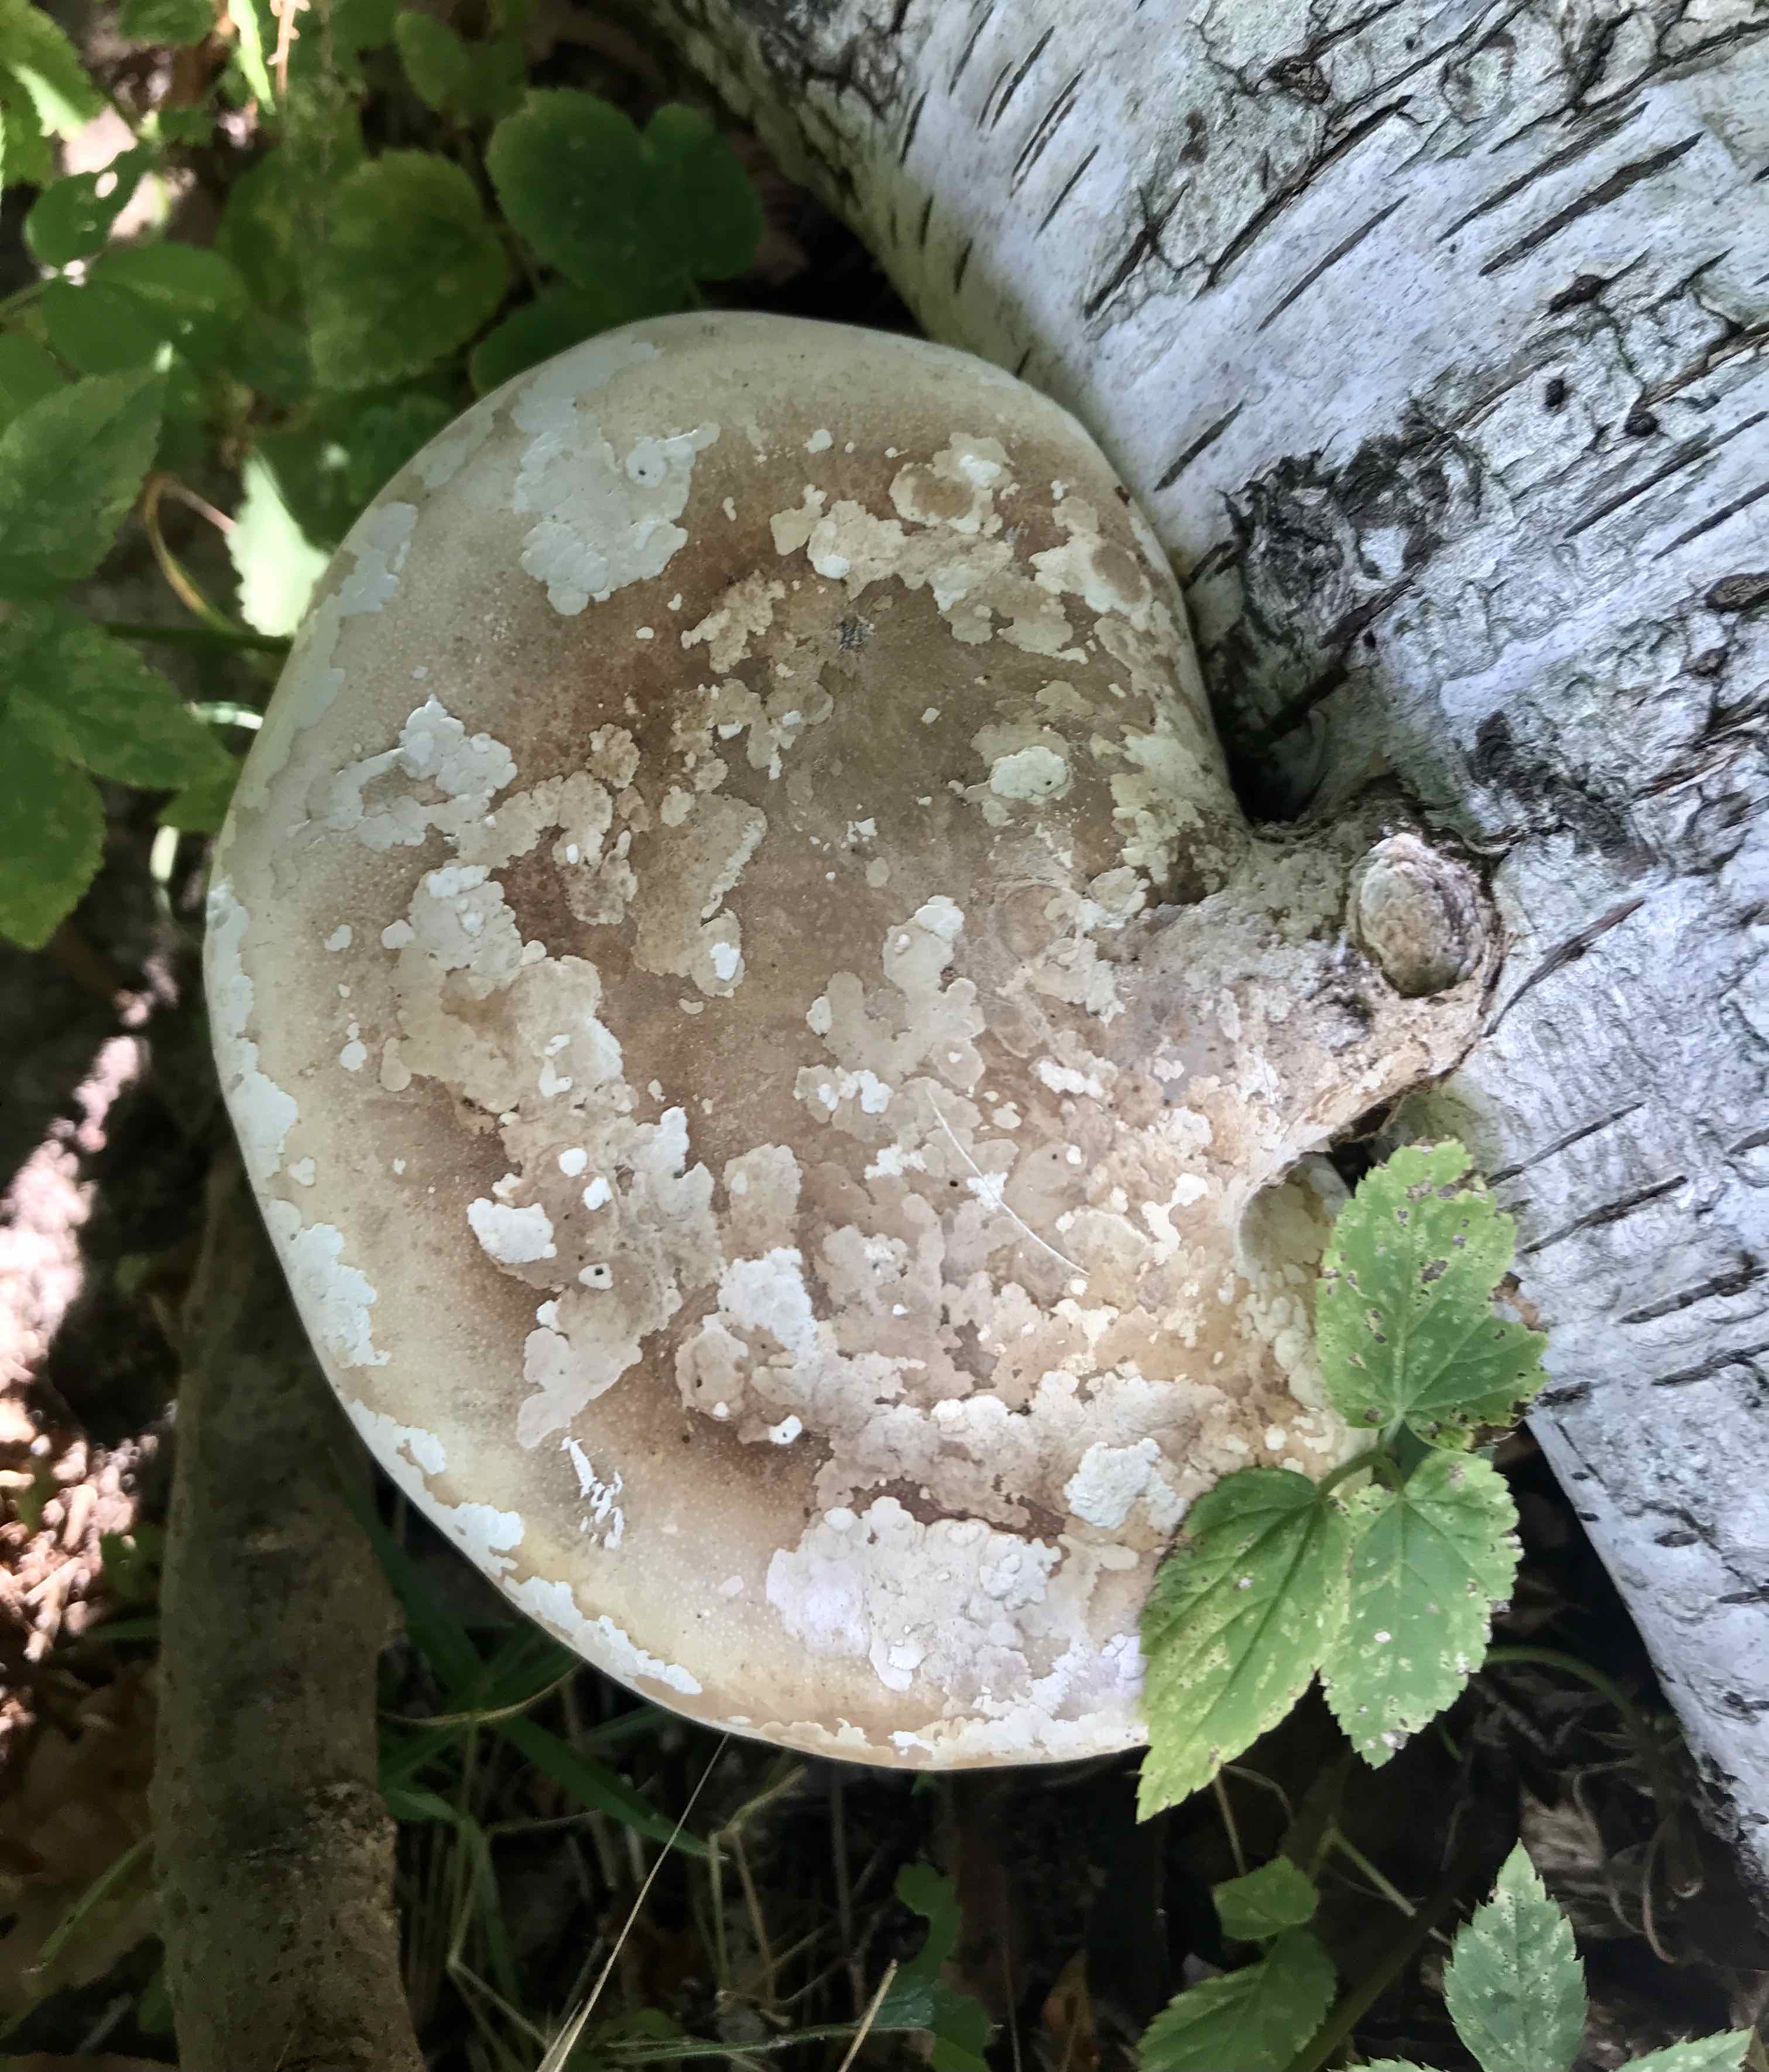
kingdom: Fungi
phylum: Basidiomycota
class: Agaricomycetes
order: Polyporales
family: Fomitopsidaceae
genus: Fomitopsis
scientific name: Fomitopsis betulina
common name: birkeporesvamp
